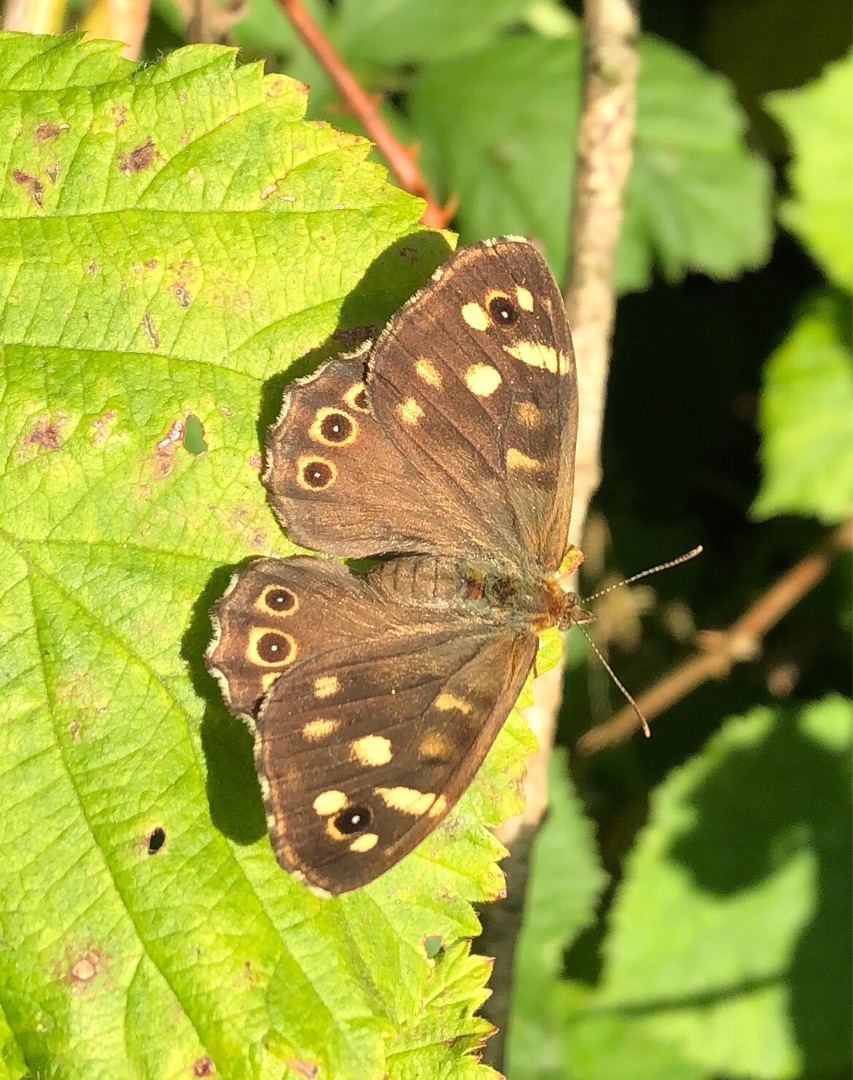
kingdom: Animalia
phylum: Arthropoda
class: Insecta
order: Lepidoptera
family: Nymphalidae
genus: Pararge
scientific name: Pararge aegeria
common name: Skovrandøje
